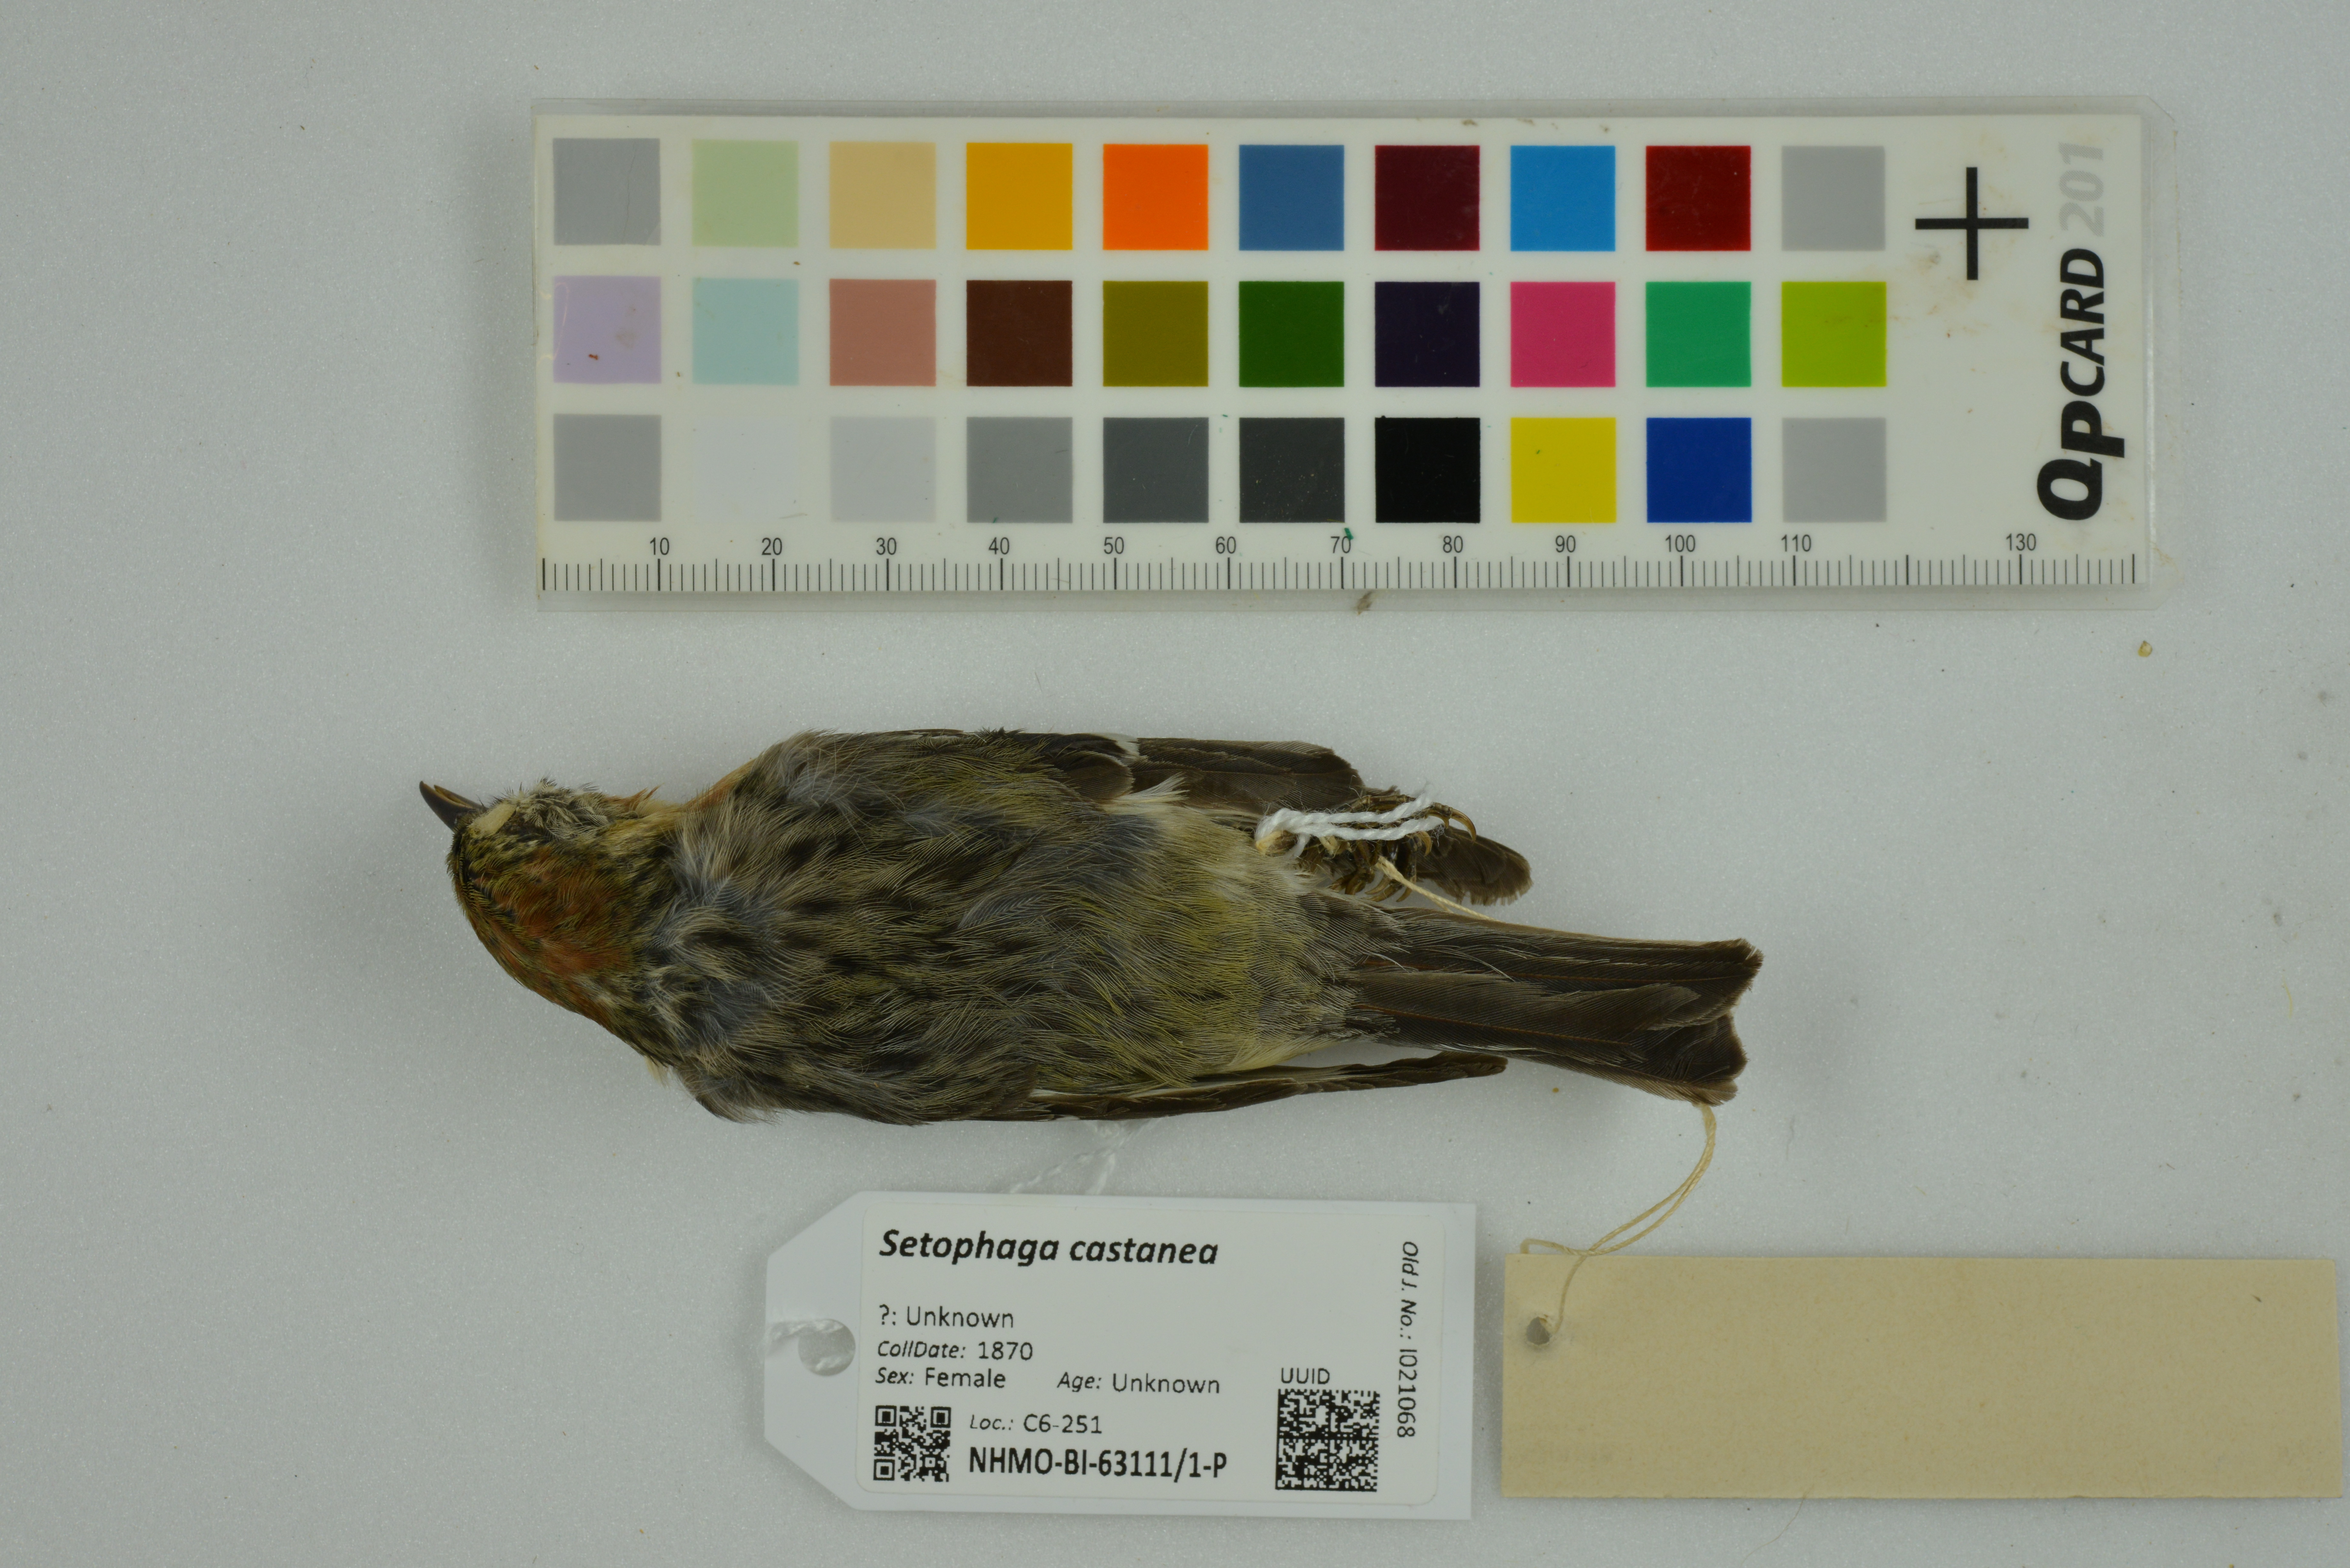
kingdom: Animalia
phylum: Chordata
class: Aves
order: Passeriformes
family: Parulidae
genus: Setophaga
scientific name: Setophaga castanea
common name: Bay-breasted warbler
